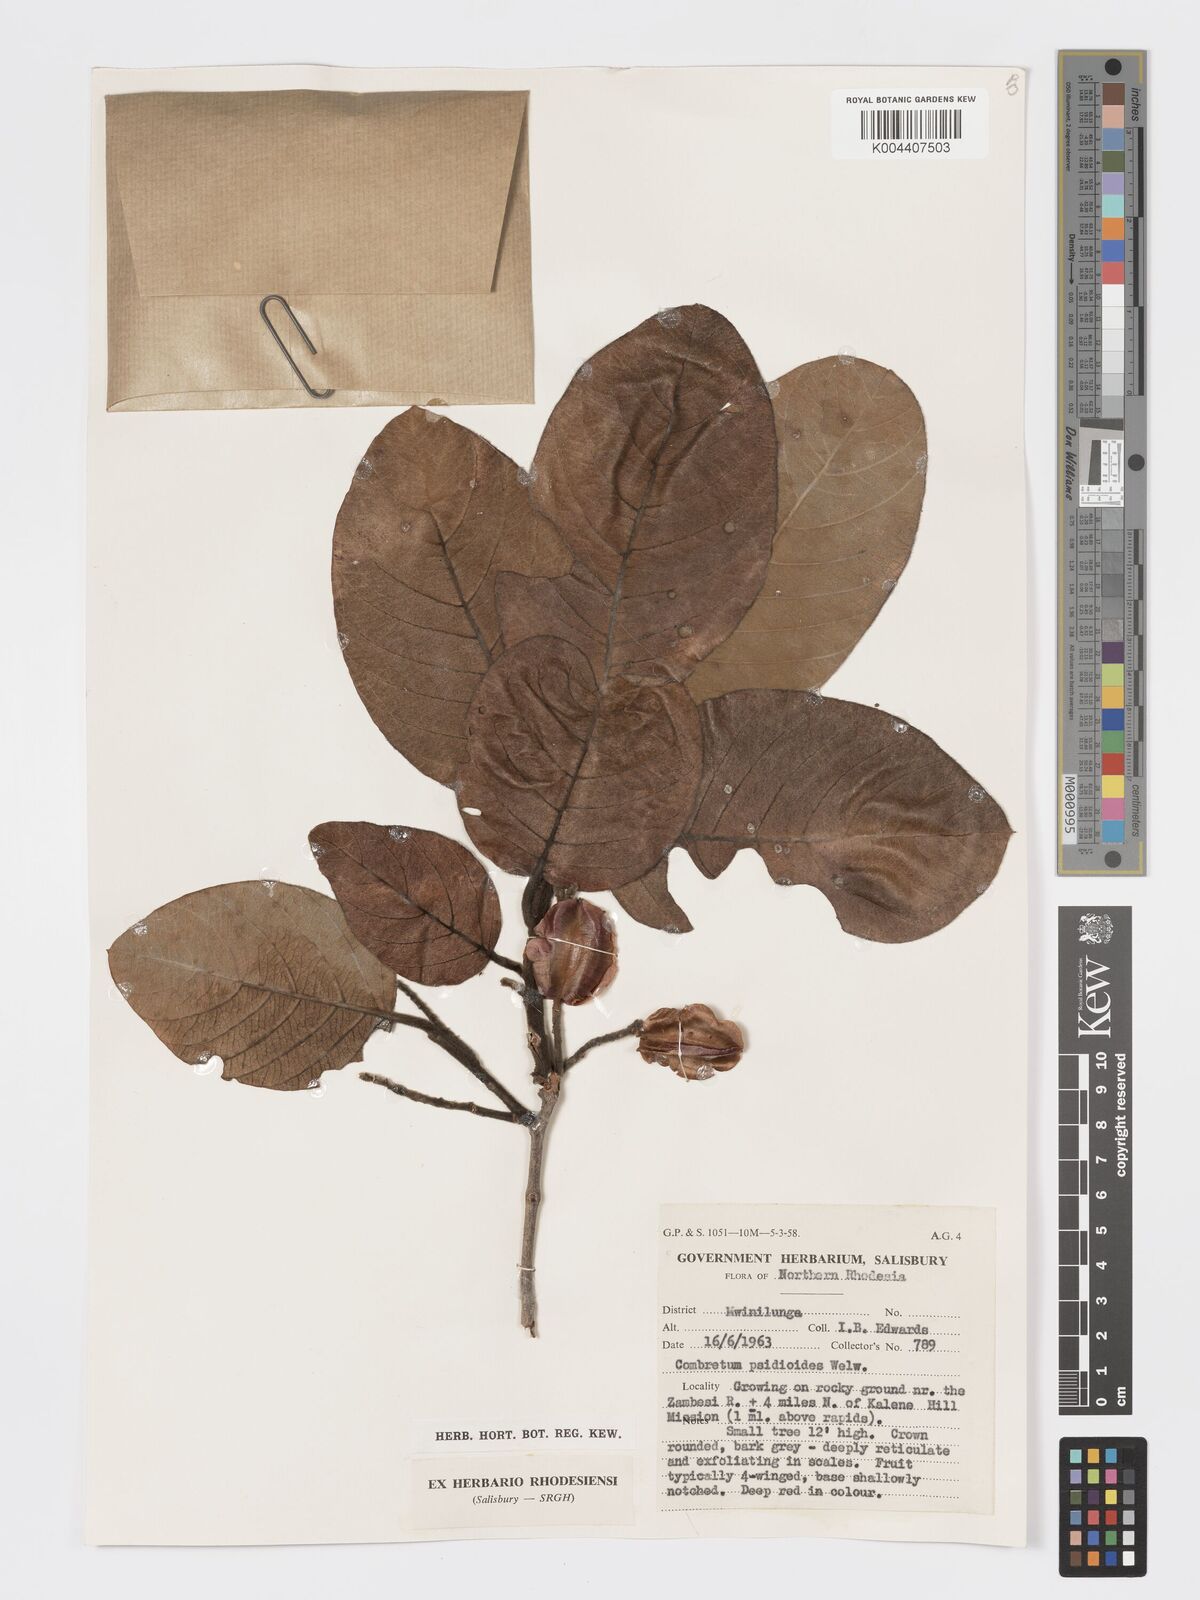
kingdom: Plantae
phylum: Tracheophyta
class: Magnoliopsida
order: Myrtales
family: Combretaceae
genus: Combretum
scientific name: Combretum psidioides
